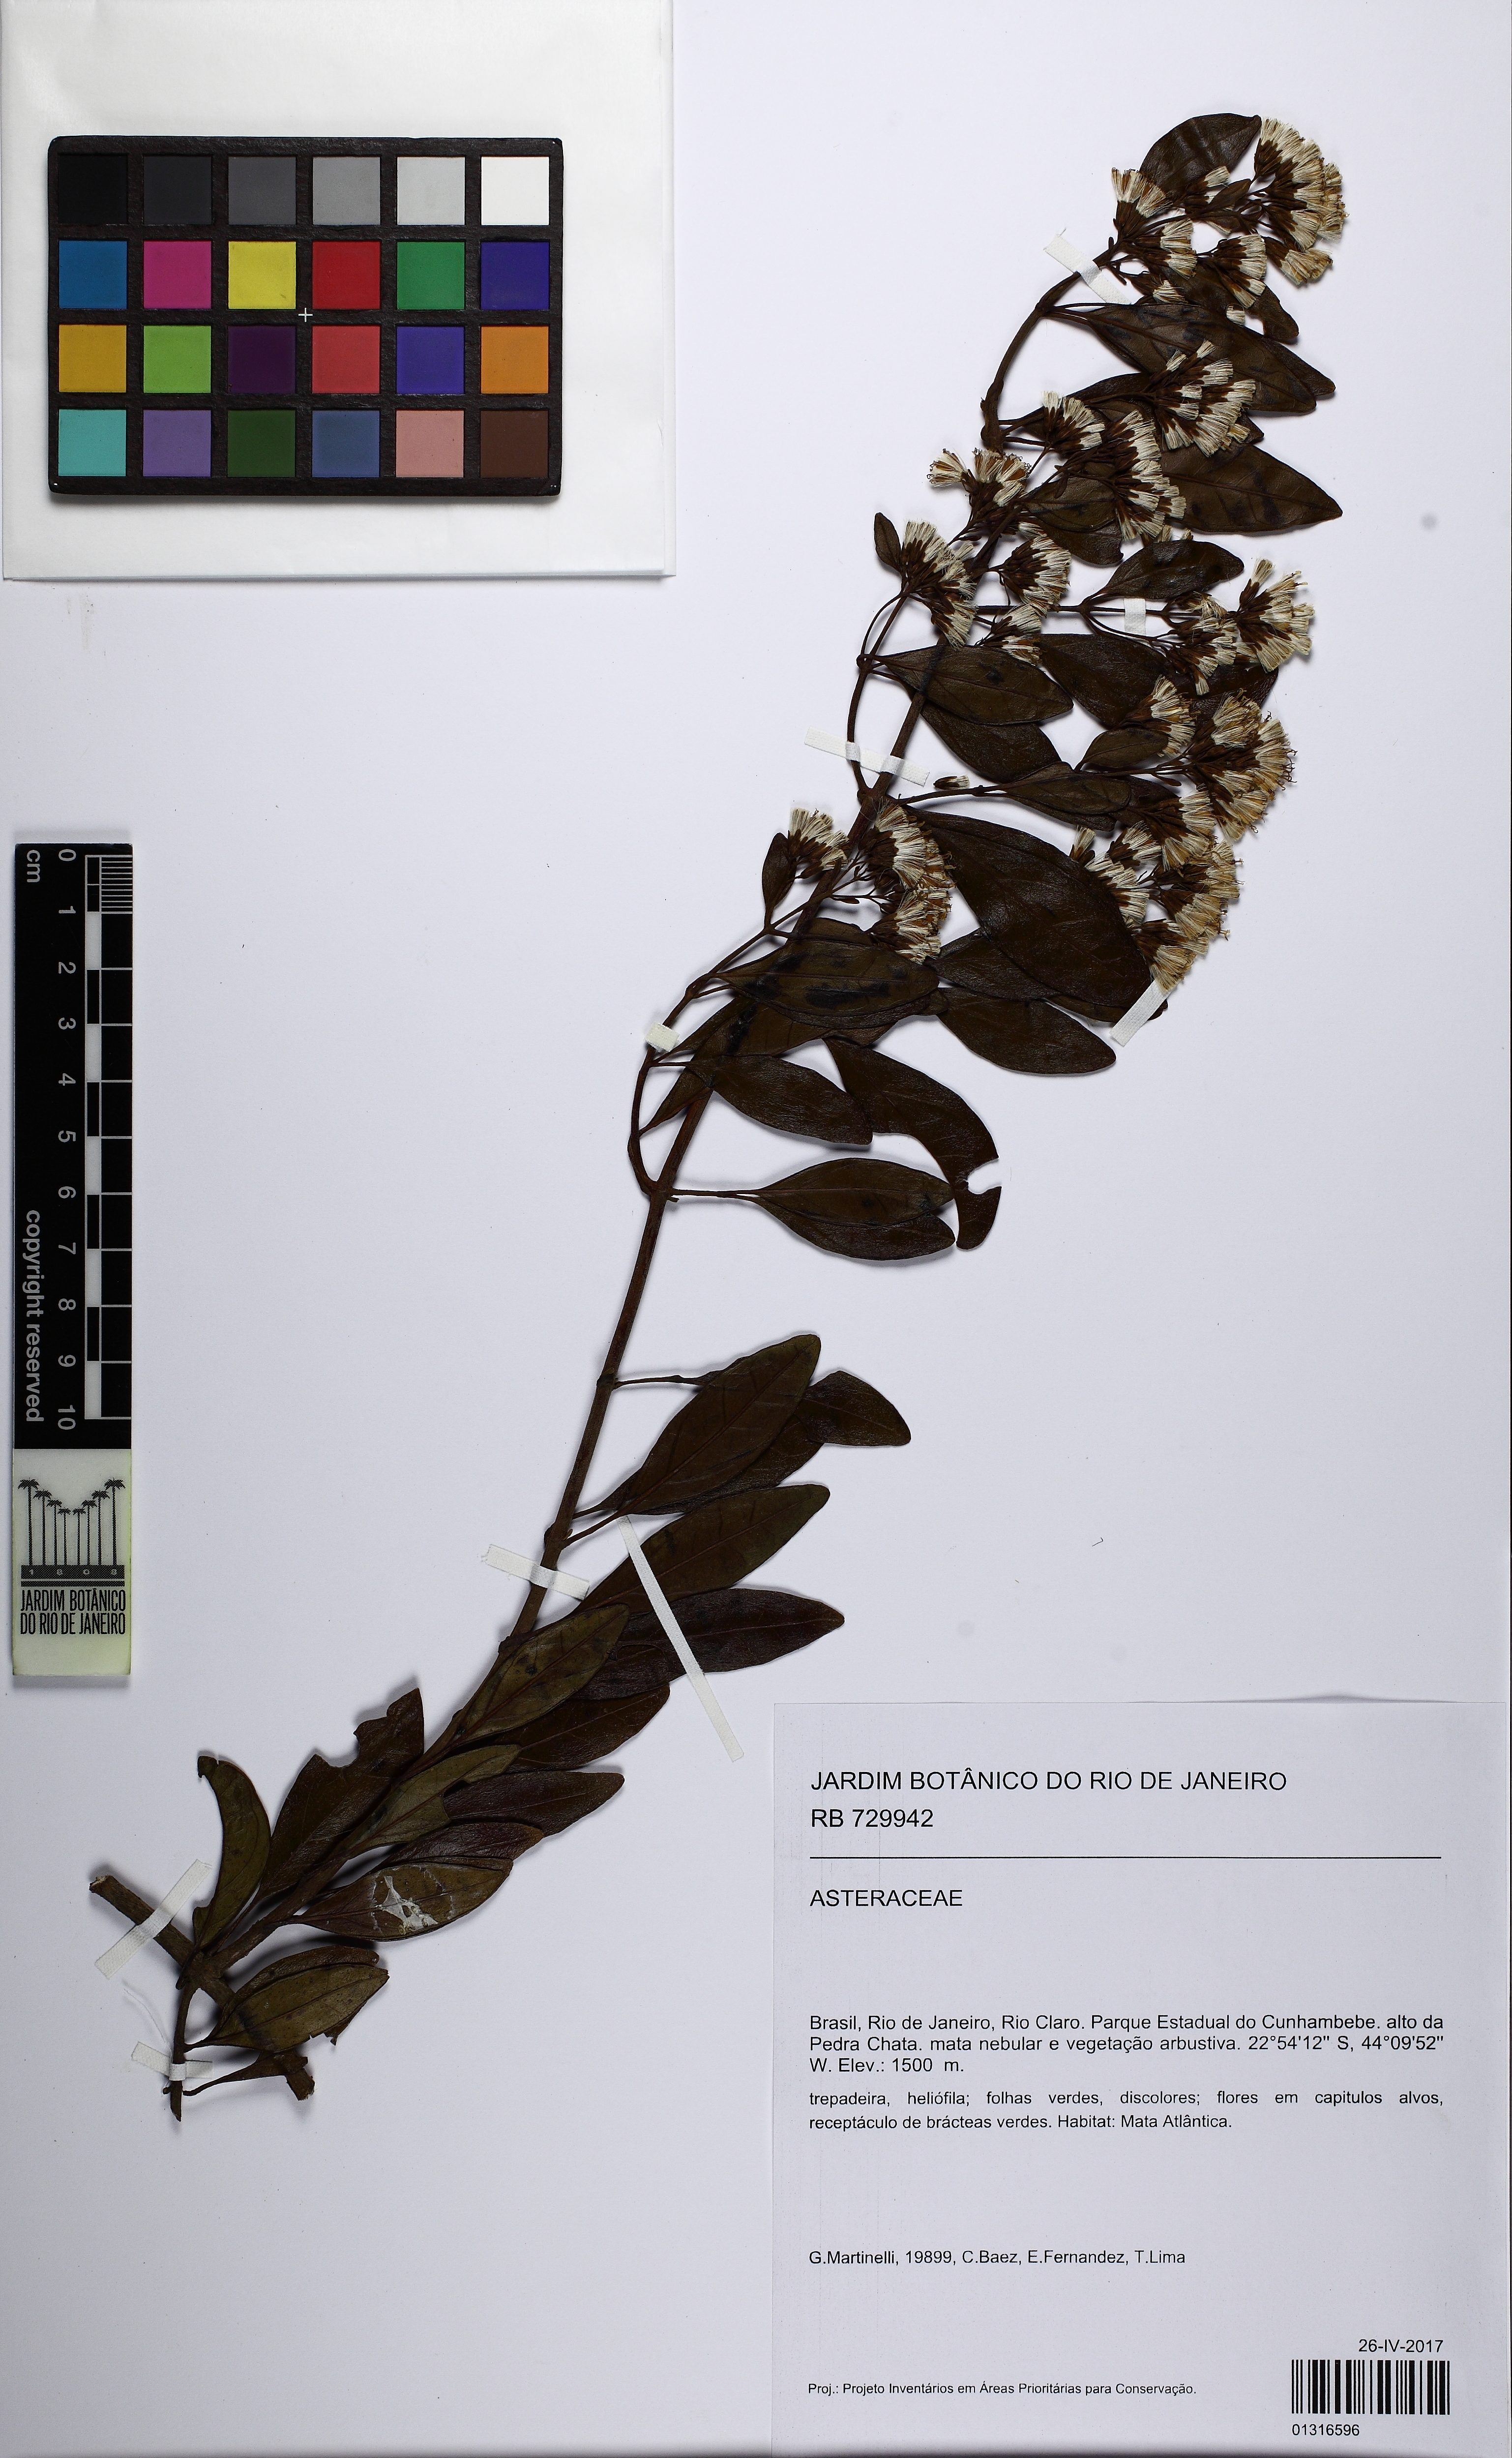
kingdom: Plantae
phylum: Tracheophyta
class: Magnoliopsida
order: Asterales
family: Asteraceae
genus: Mikania
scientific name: Mikania
